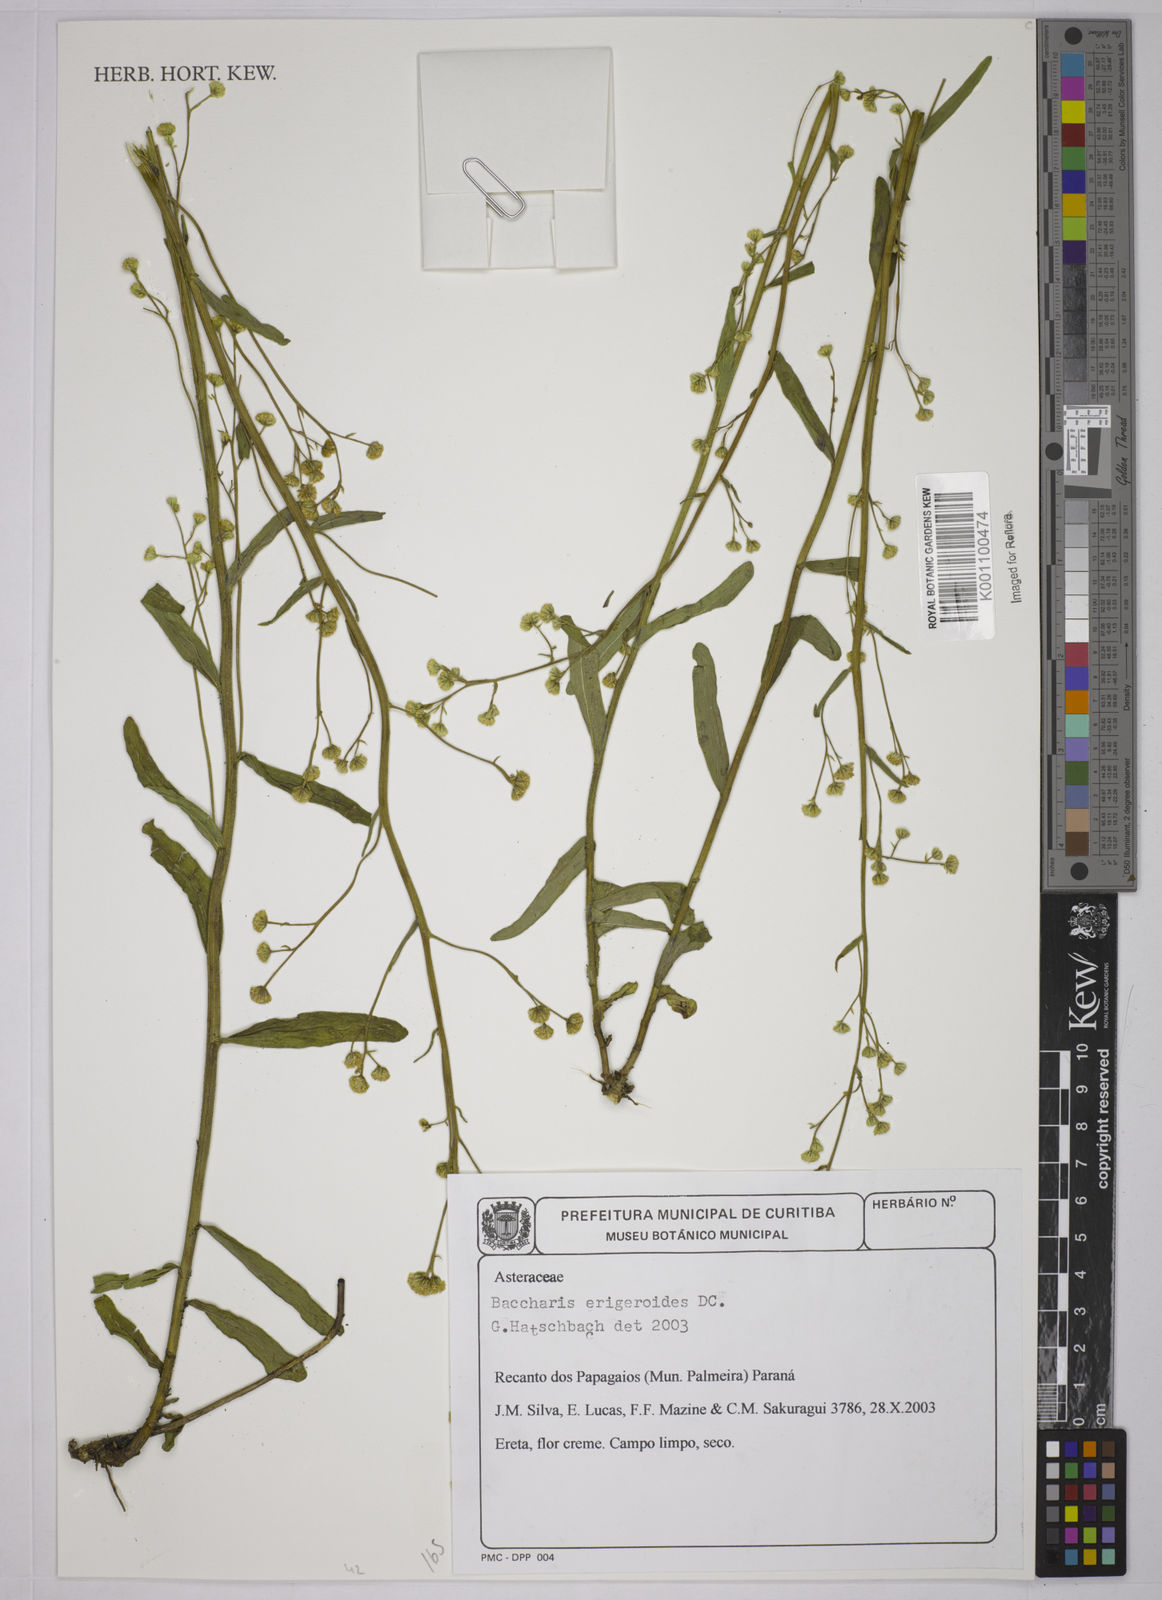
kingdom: Plantae
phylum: Tracheophyta
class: Magnoliopsida
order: Asterales
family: Asteraceae
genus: Baccharis
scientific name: Baccharis erigeroides
